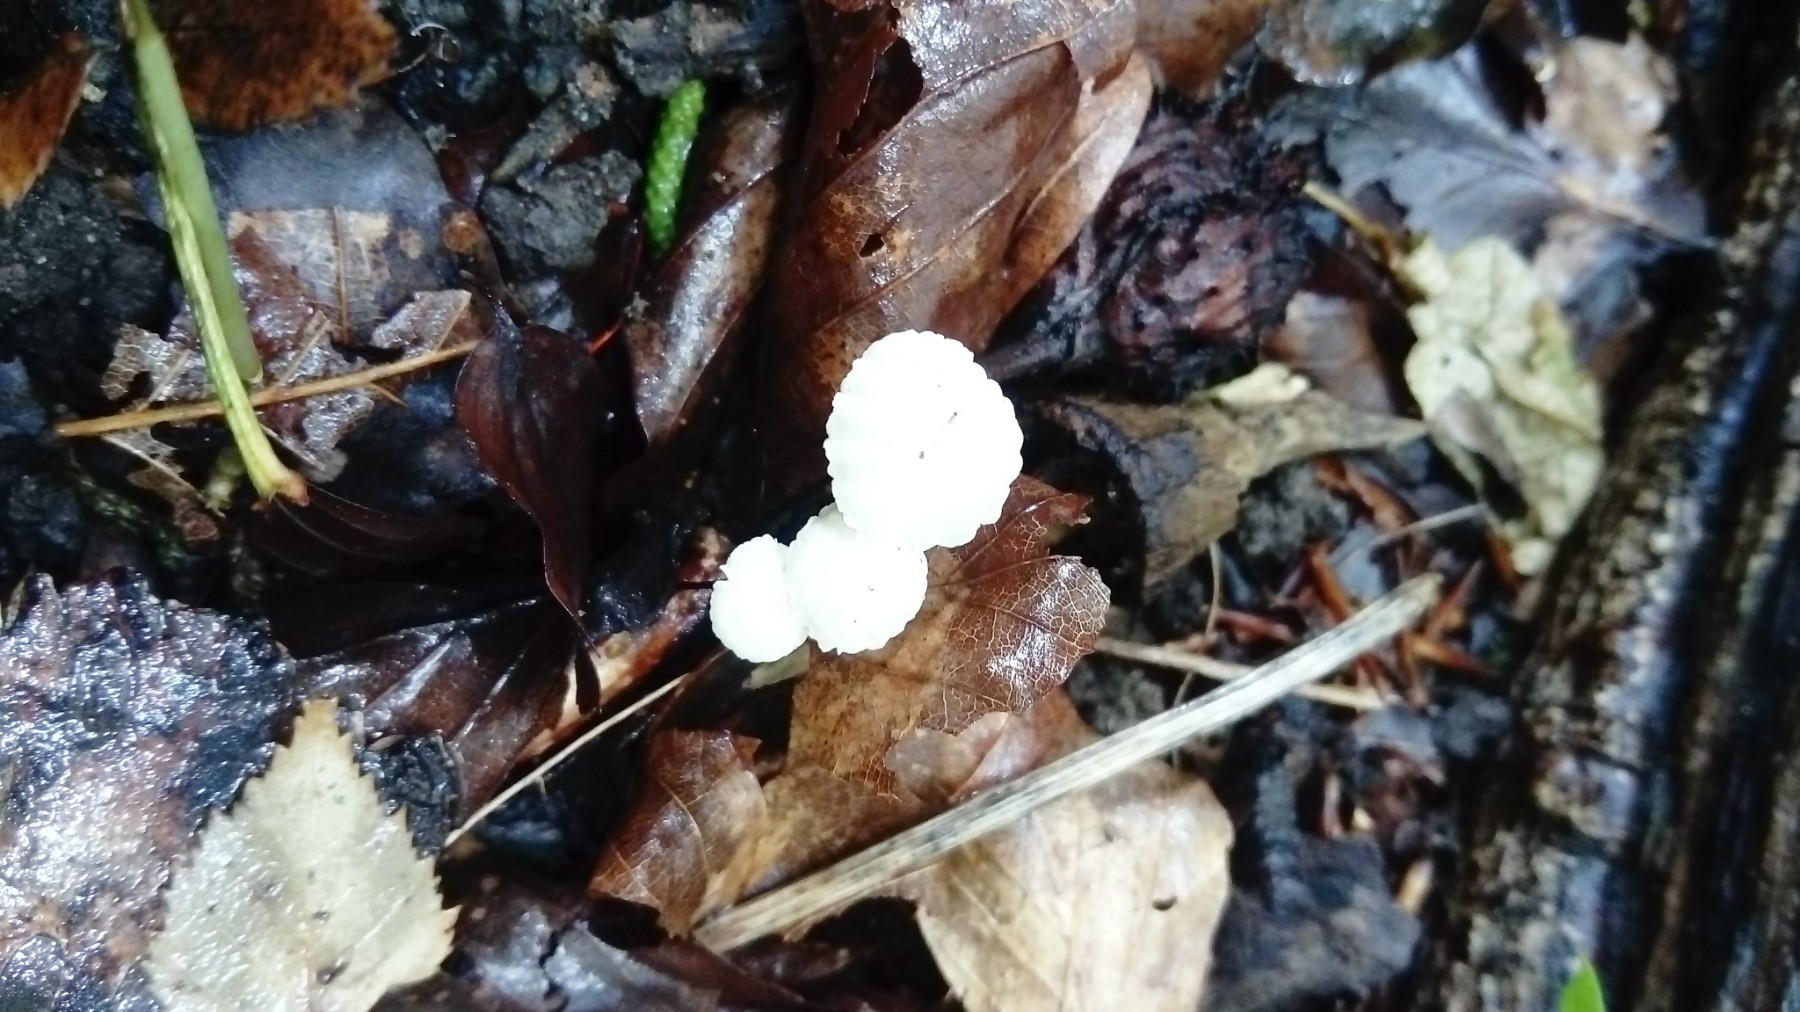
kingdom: Fungi
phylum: Basidiomycota
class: Agaricomycetes
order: Agaricales
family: Marasmiaceae
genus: Marasmius
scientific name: Marasmius rotula
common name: hjul-bruskhat
